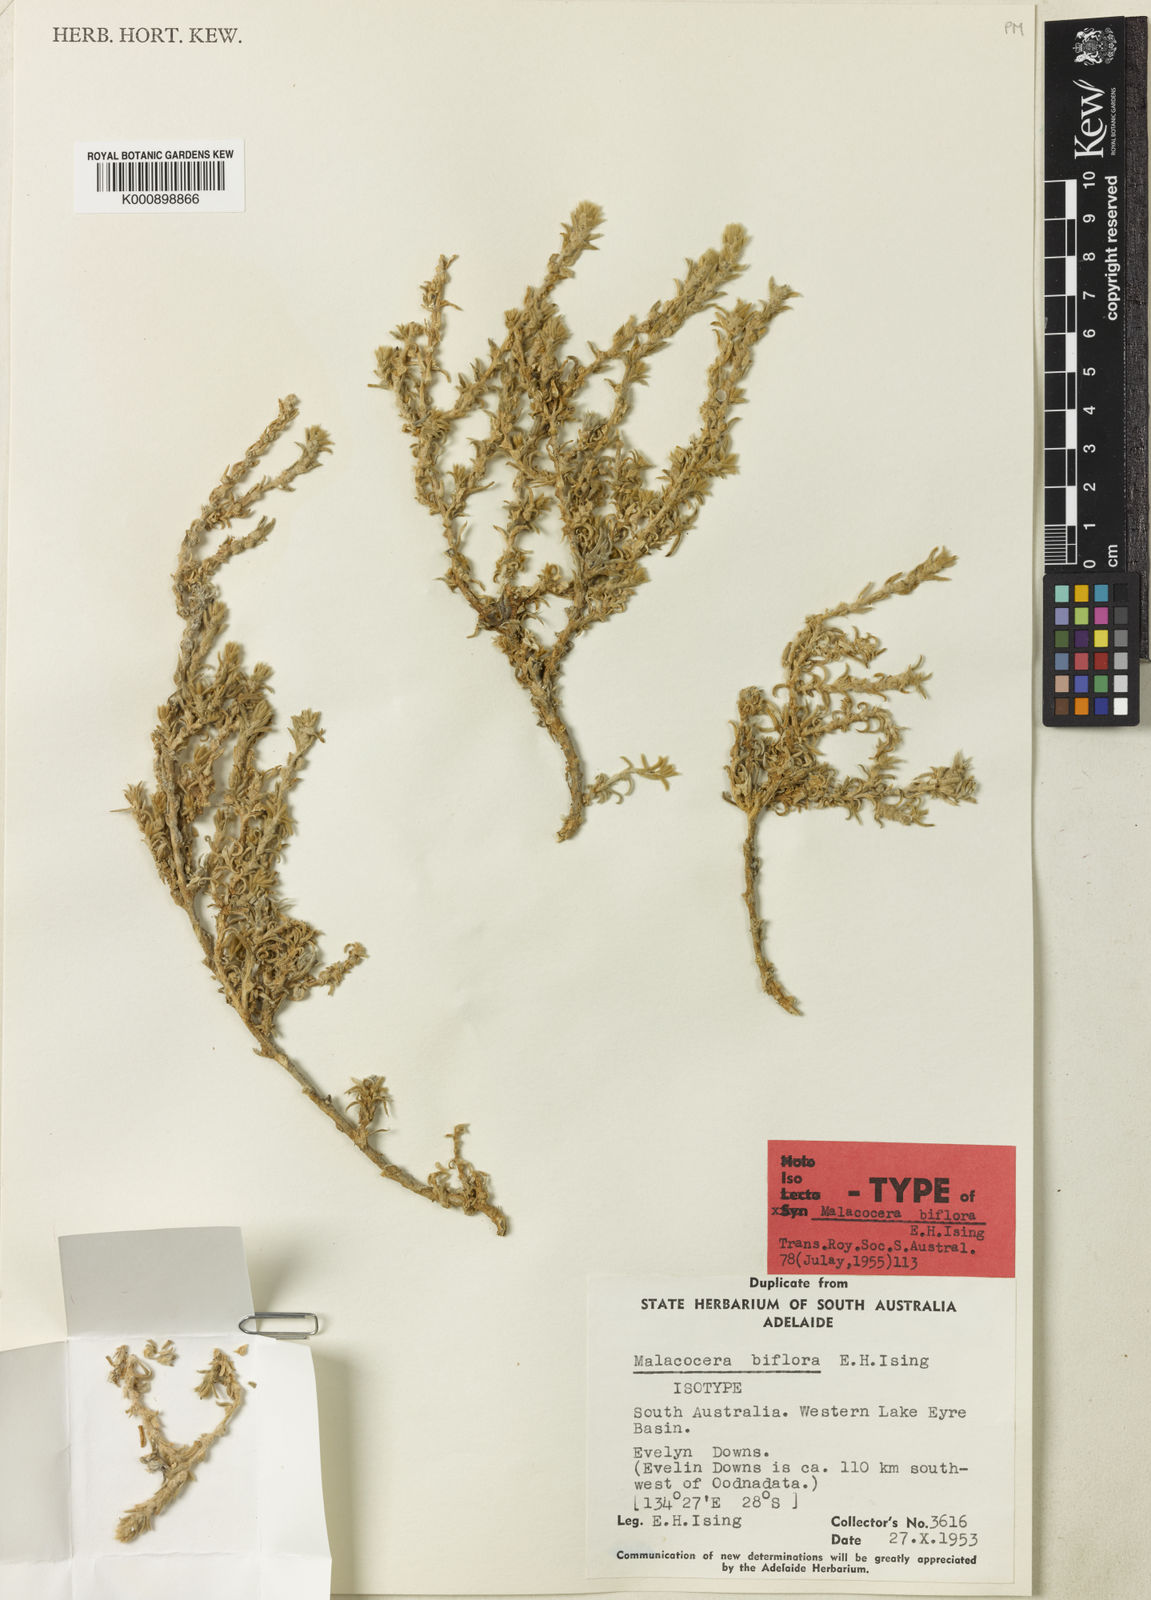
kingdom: Plantae
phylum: Tracheophyta
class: Magnoliopsida
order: Caryophyllales
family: Amaranthaceae
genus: Malacocera
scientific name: Malacocera biflora
